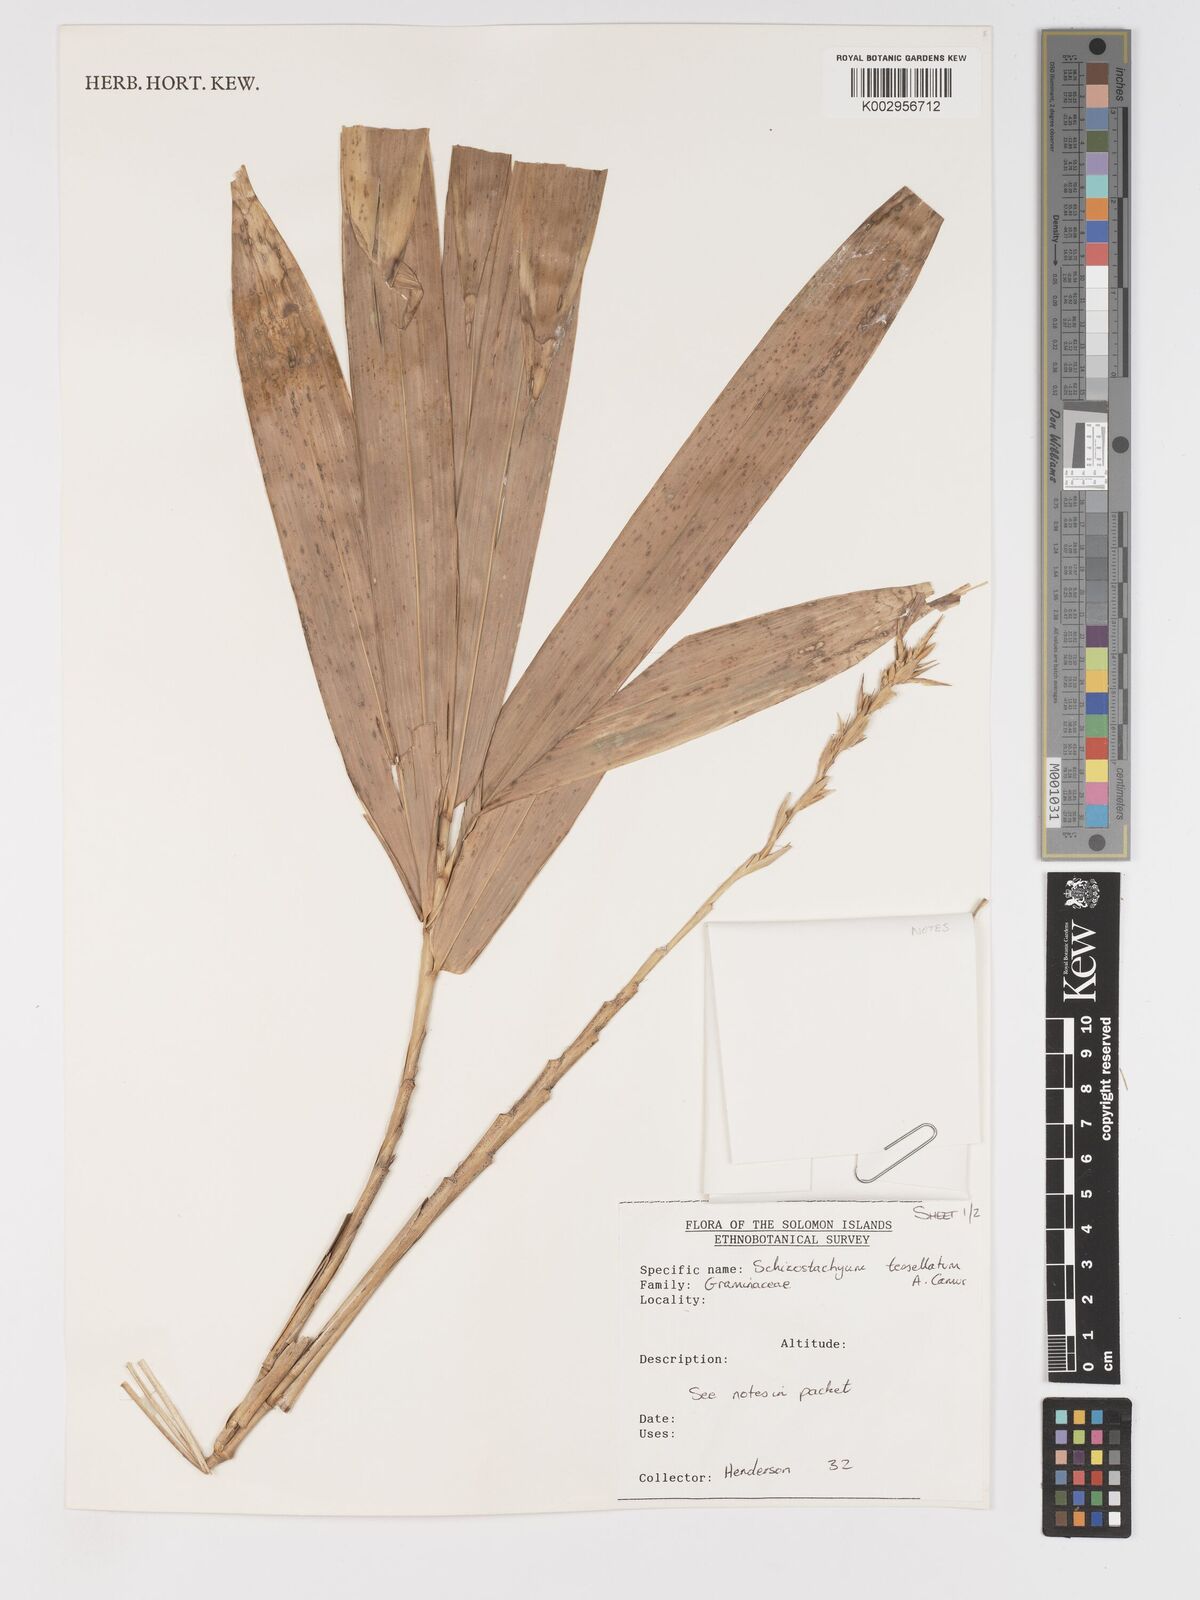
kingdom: Plantae
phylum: Tracheophyta
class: Liliopsida
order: Poales
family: Poaceae
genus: Schizostachyum
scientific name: Schizostachyum tessellatum
